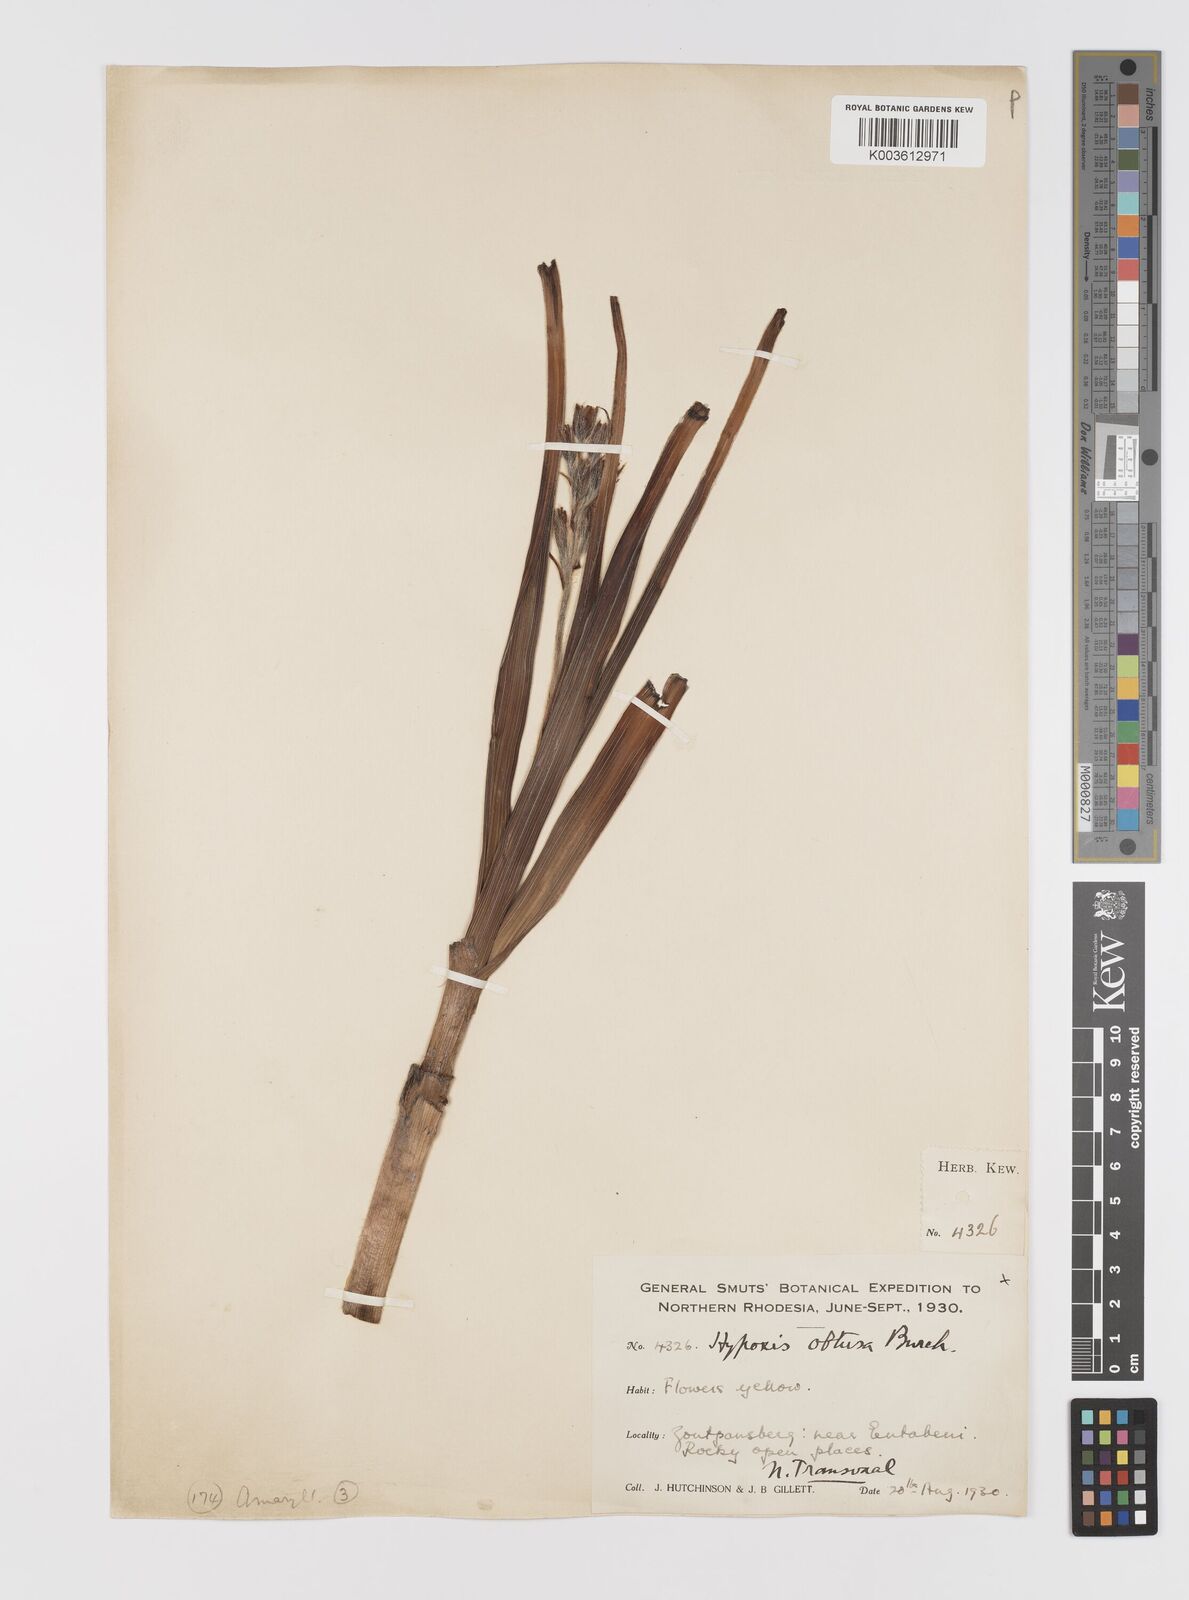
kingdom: Plantae
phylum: Tracheophyta
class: Liliopsida
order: Asparagales
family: Hypoxidaceae
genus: Hypoxis
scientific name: Hypoxis rigidula
